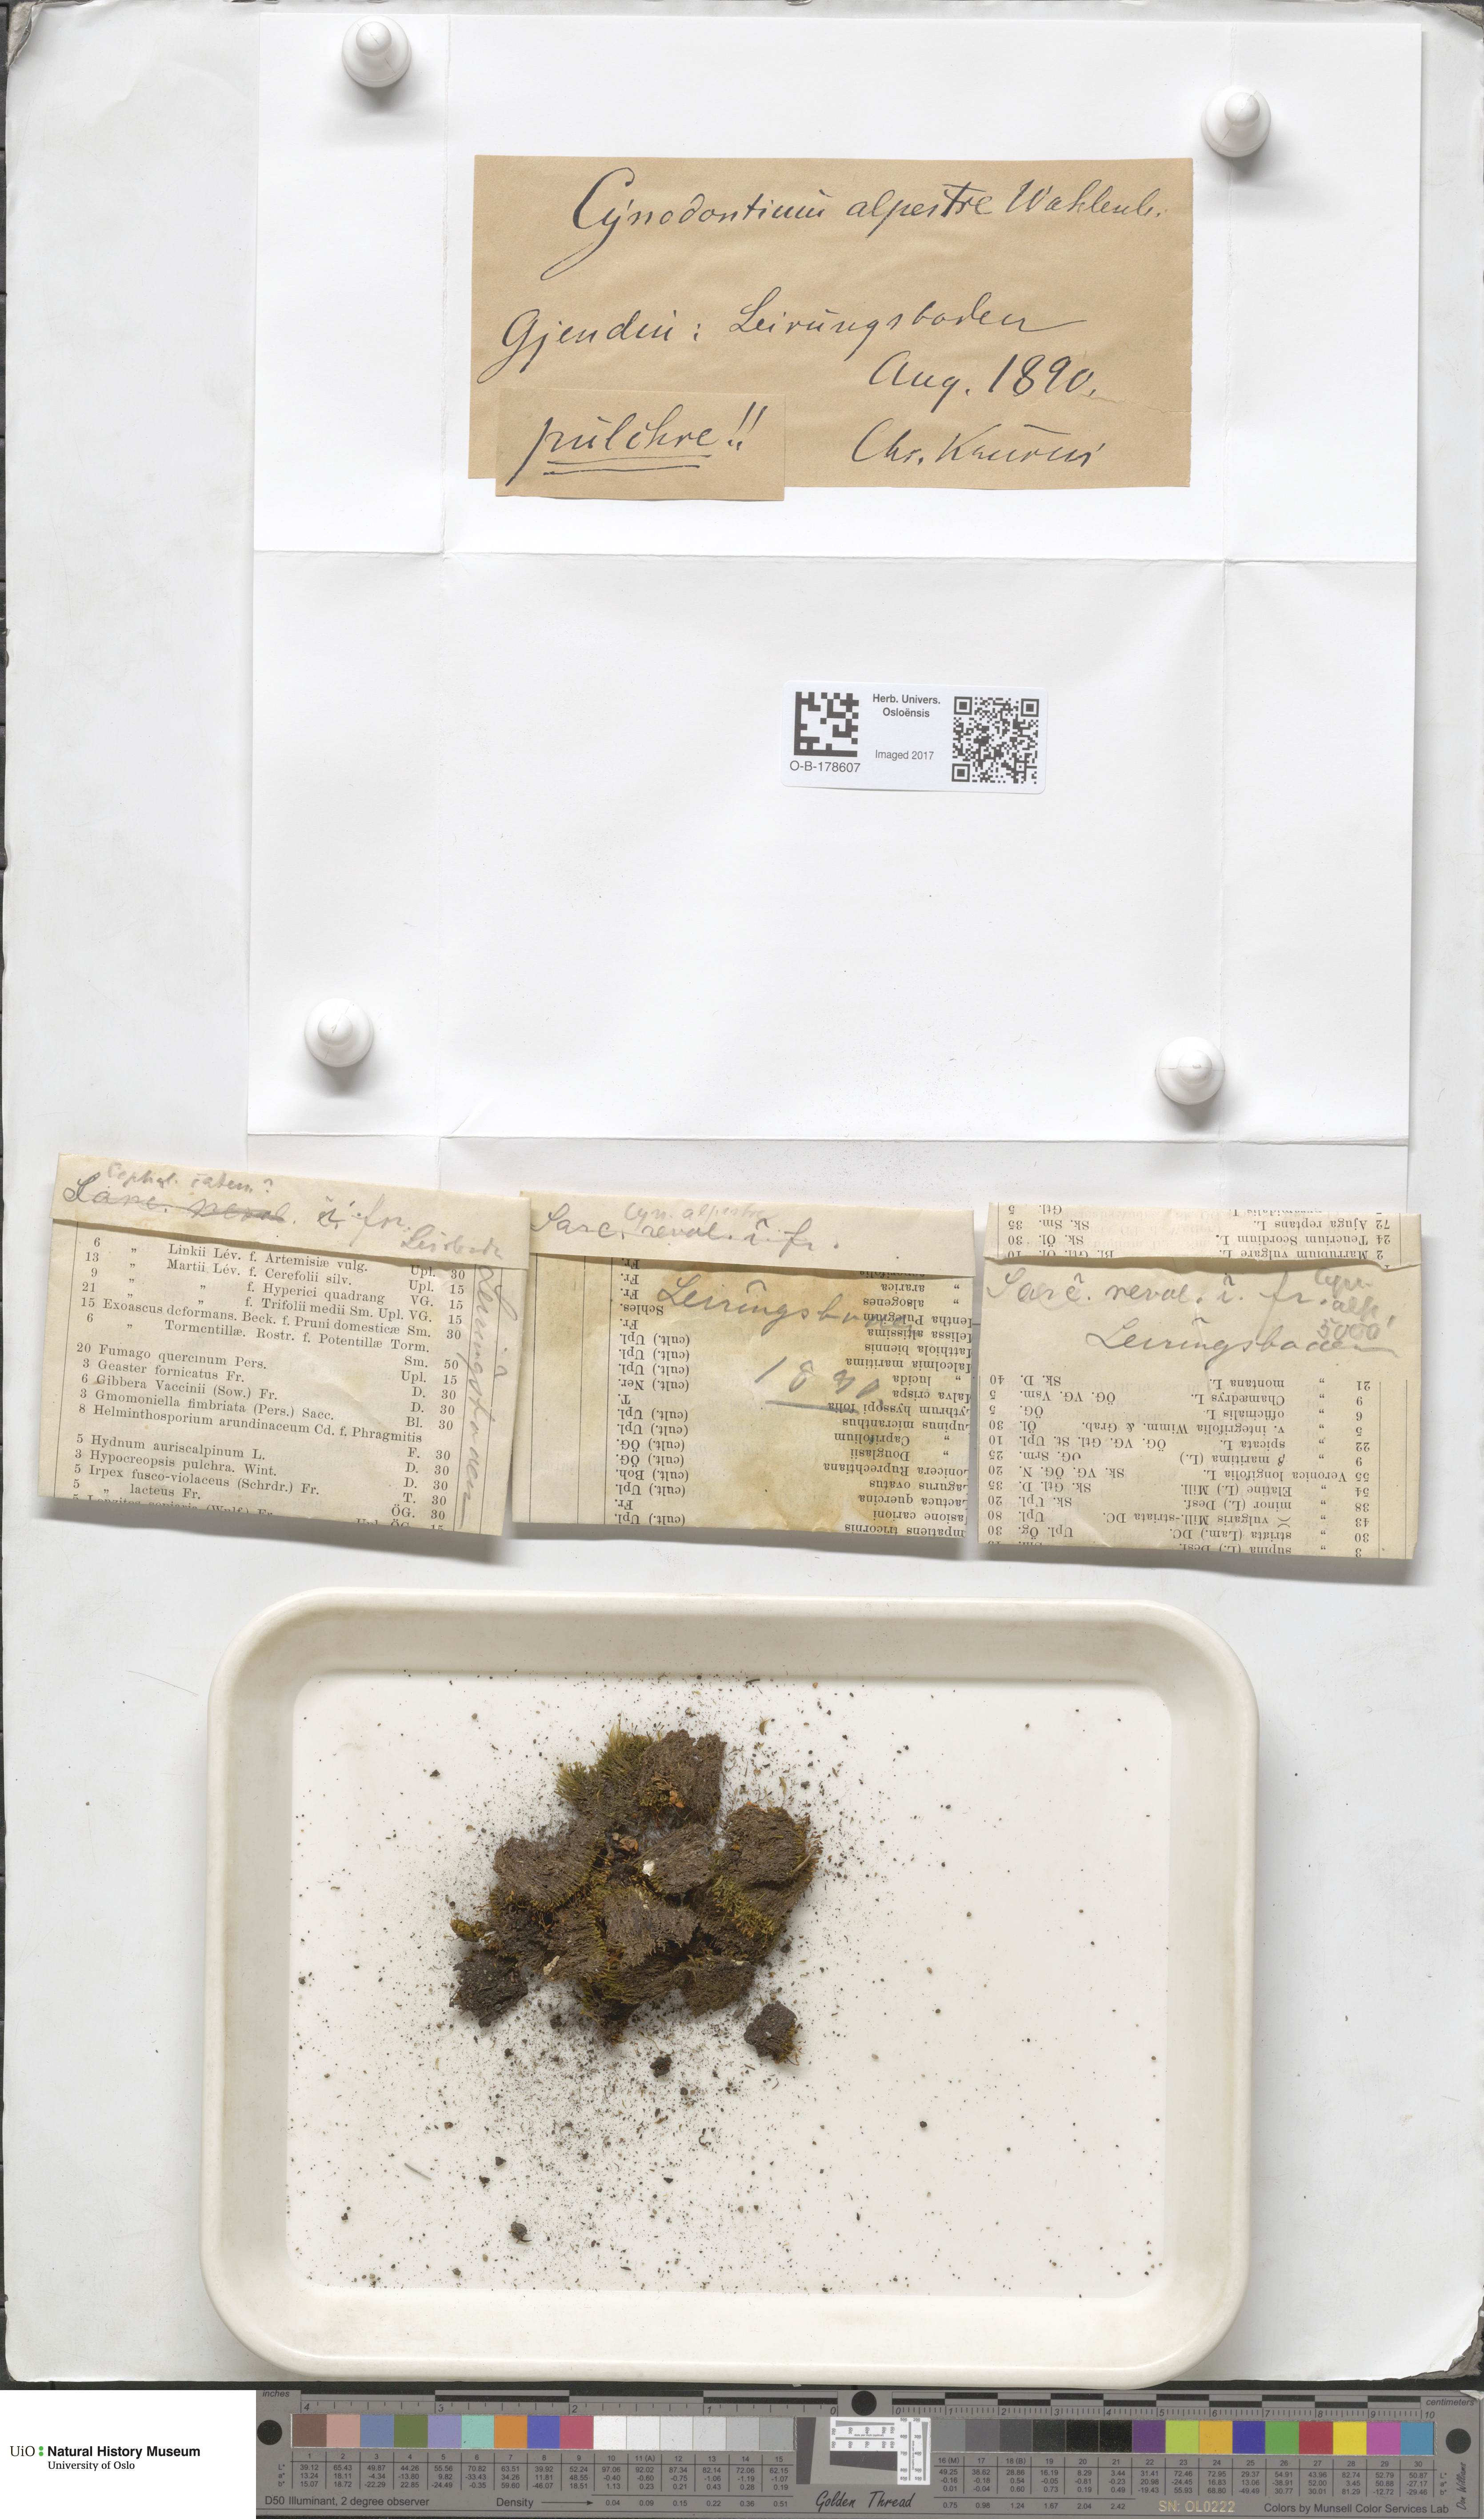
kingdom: Plantae
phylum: Bryophyta
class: Bryopsida
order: Dicranales
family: Rhabdoweisiaceae
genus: Cnestrum
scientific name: Cnestrum alpestre
